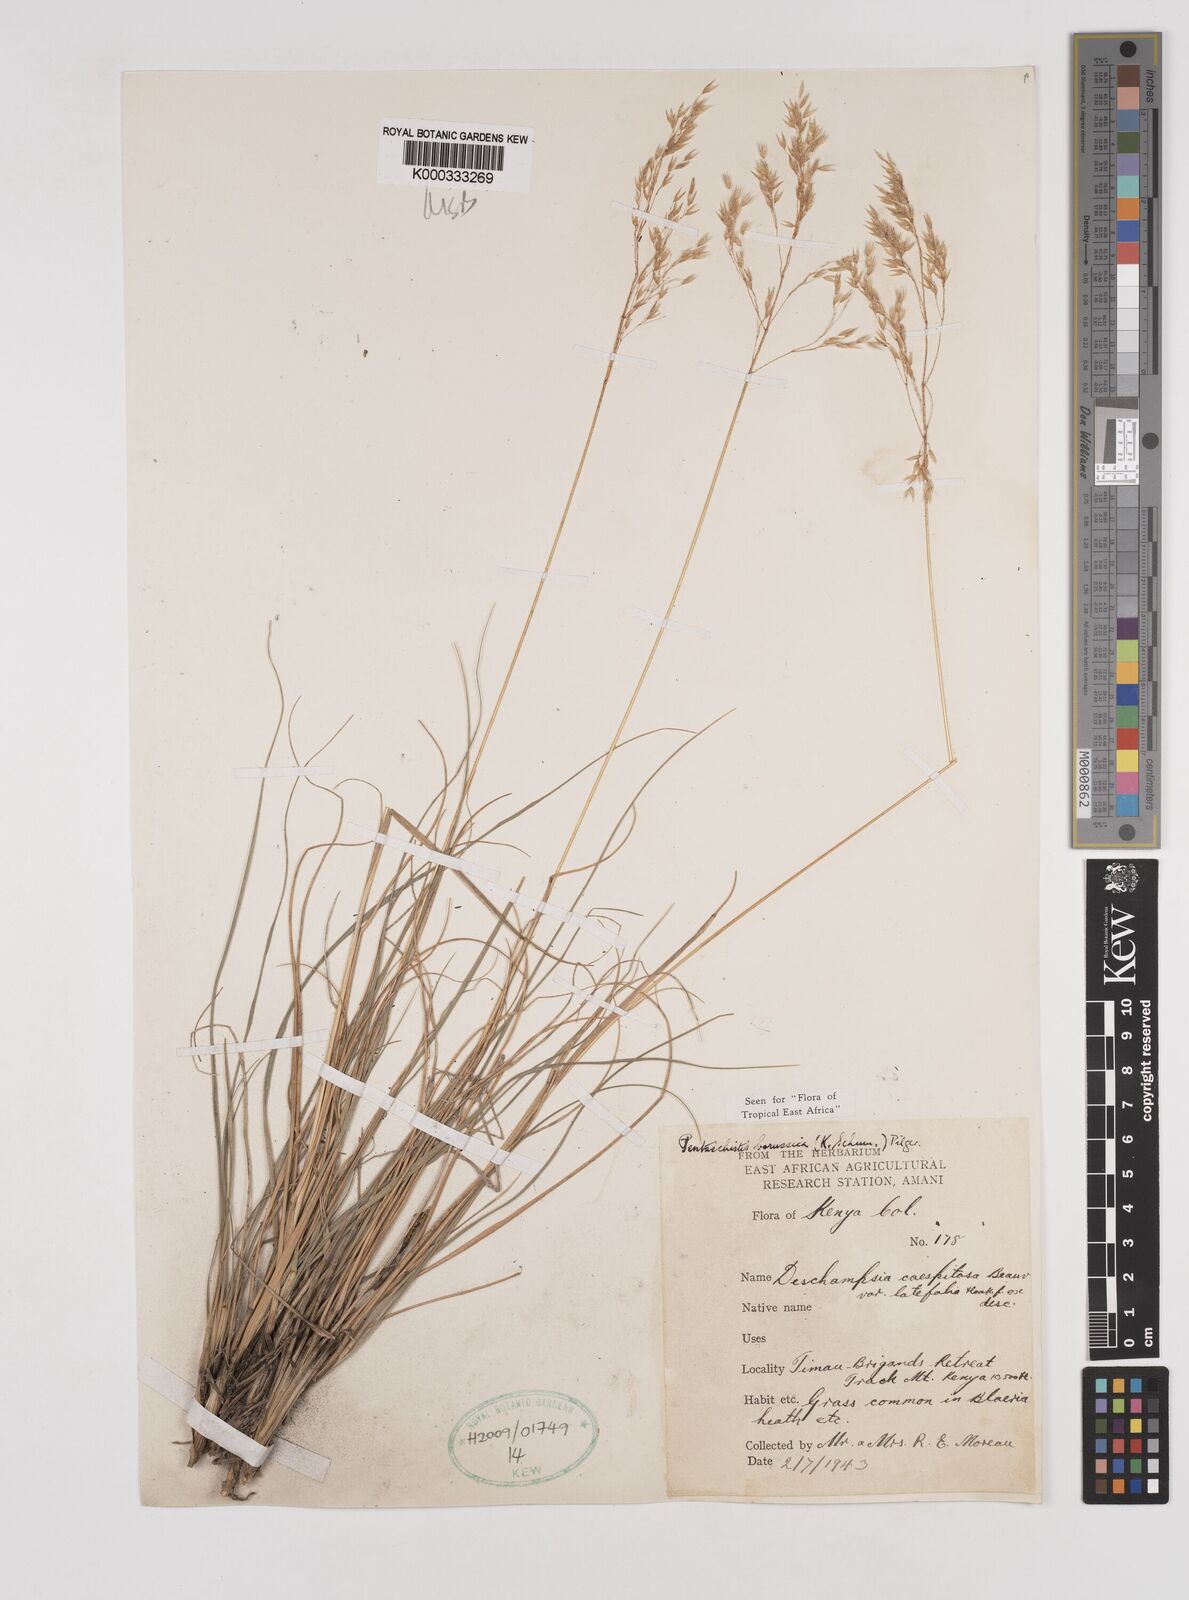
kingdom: Plantae
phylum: Tracheophyta
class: Liliopsida
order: Poales
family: Poaceae
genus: Pentameris
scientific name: Pentameris borussica
